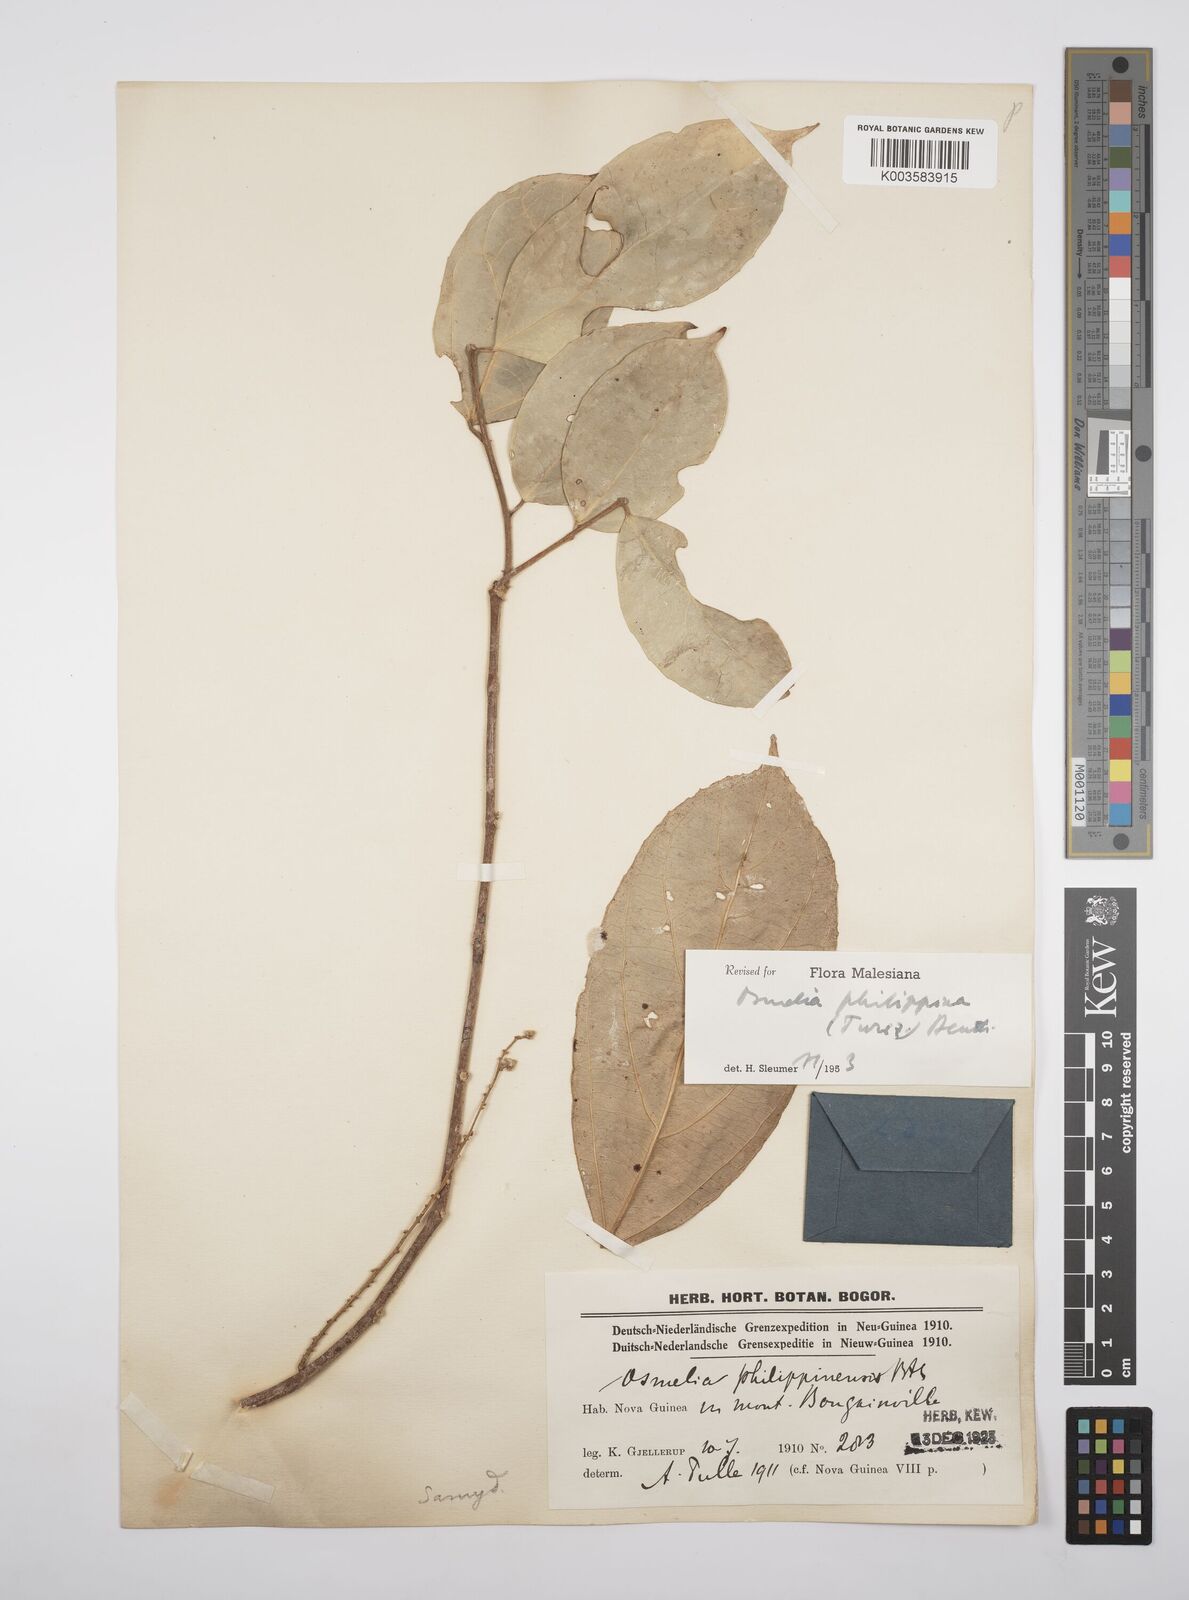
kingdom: Plantae
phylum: Tracheophyta
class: Magnoliopsida
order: Malpighiales
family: Salicaceae
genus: Osmelia
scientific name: Osmelia philippina
